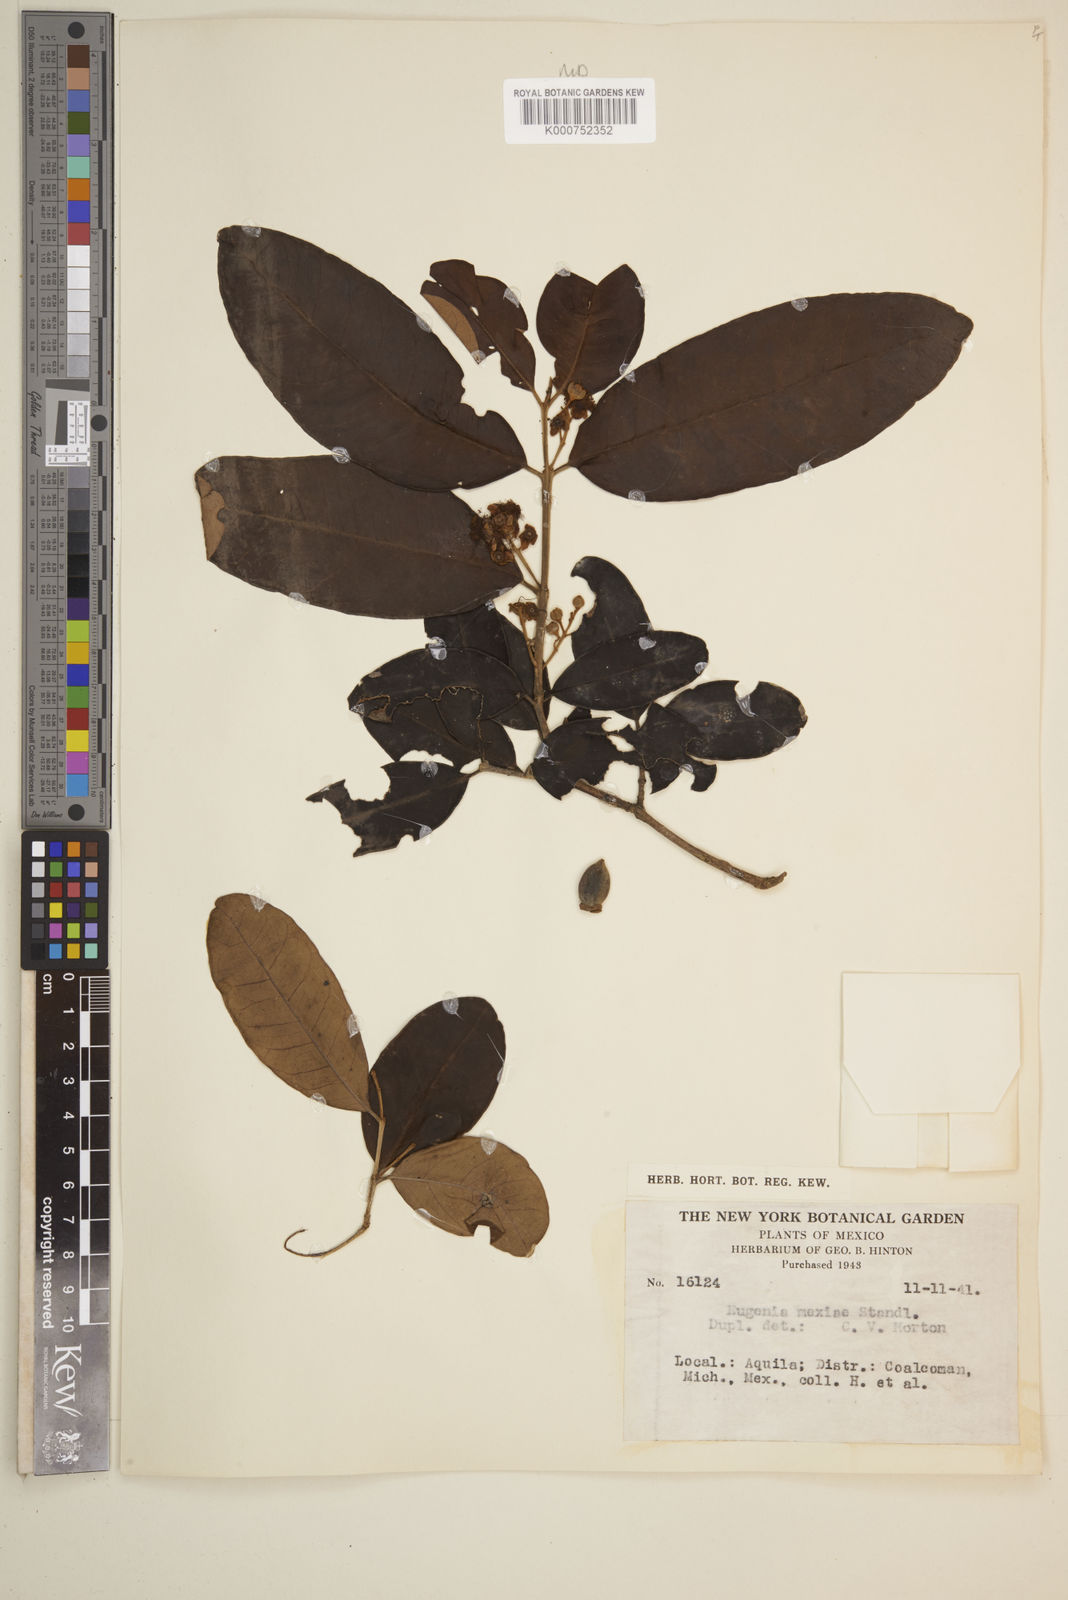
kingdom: Plantae
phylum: Tracheophyta
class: Magnoliopsida
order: Myrtales
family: Myrtaceae
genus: Eugenia
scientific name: Eugenia salamensis
